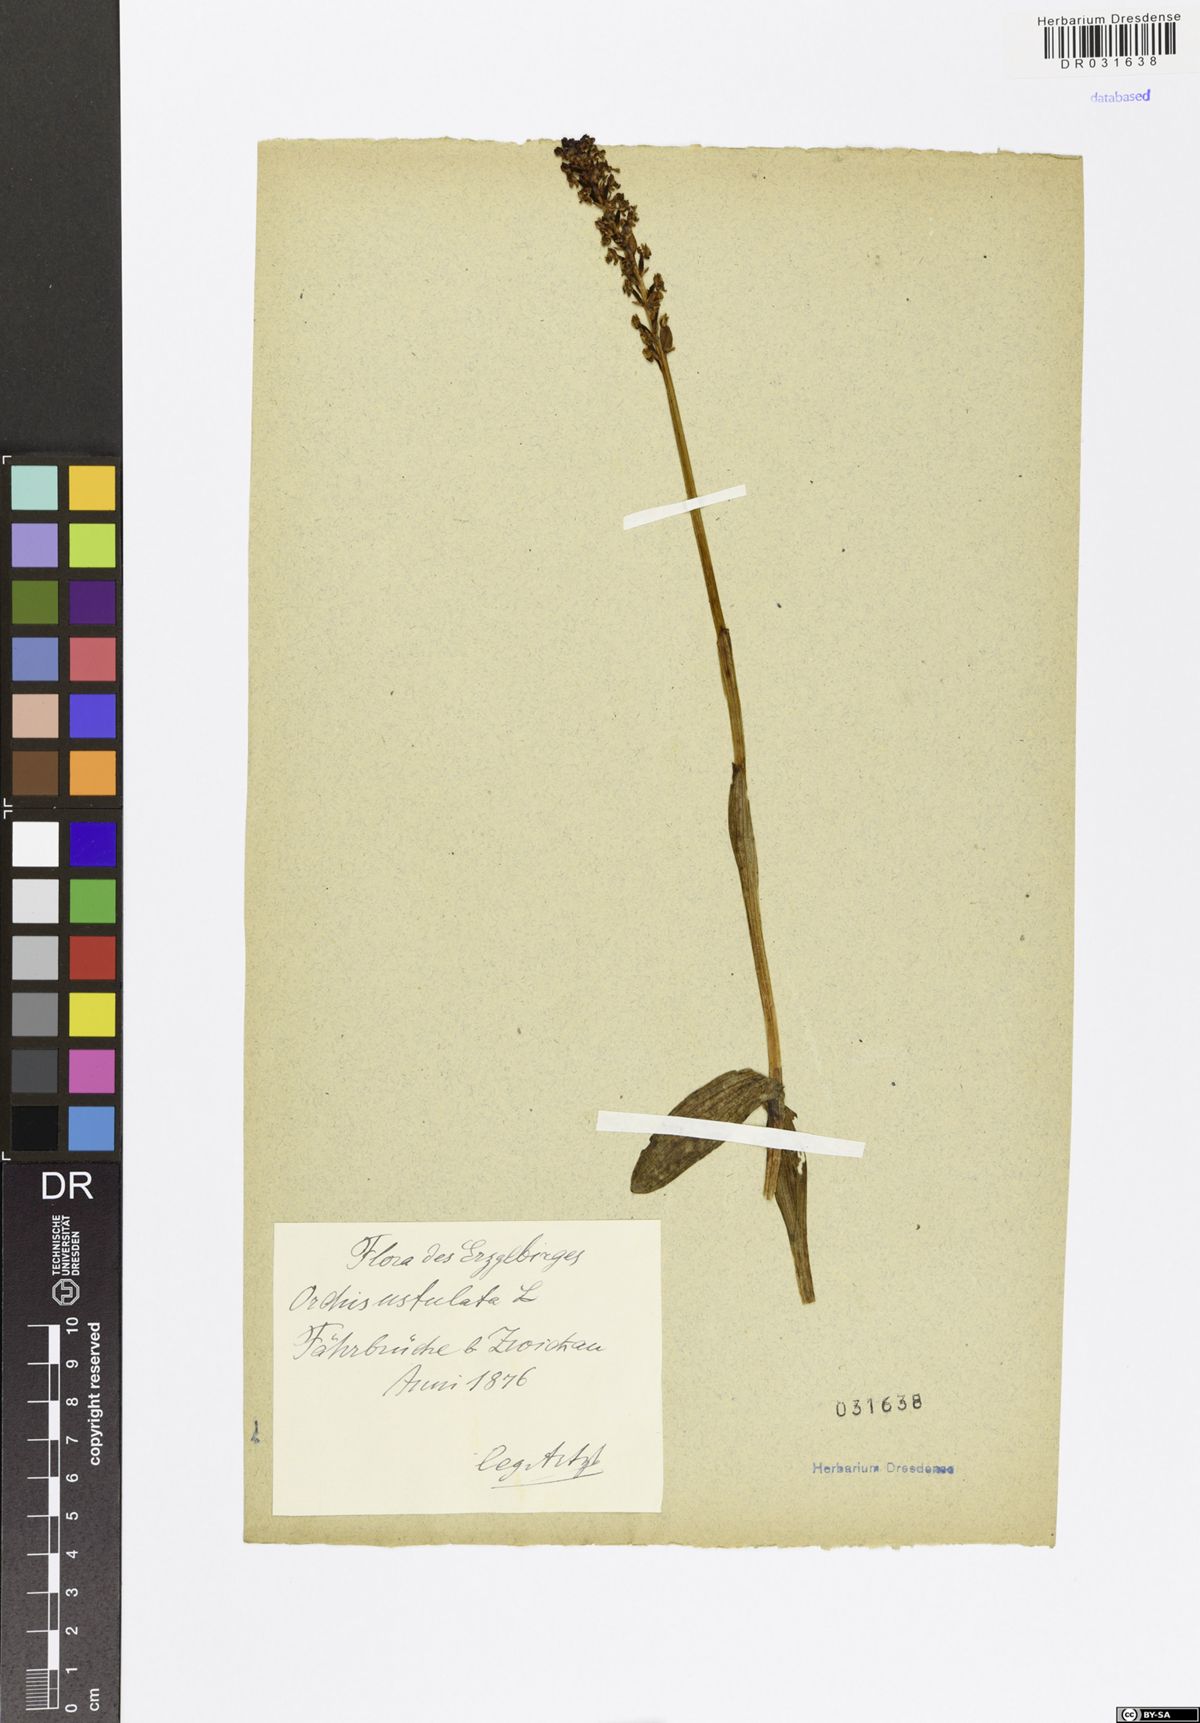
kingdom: Plantae
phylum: Tracheophyta
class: Liliopsida
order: Asparagales
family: Orchidaceae
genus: Neotinea
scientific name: Neotinea ustulata
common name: Burnt orchid
